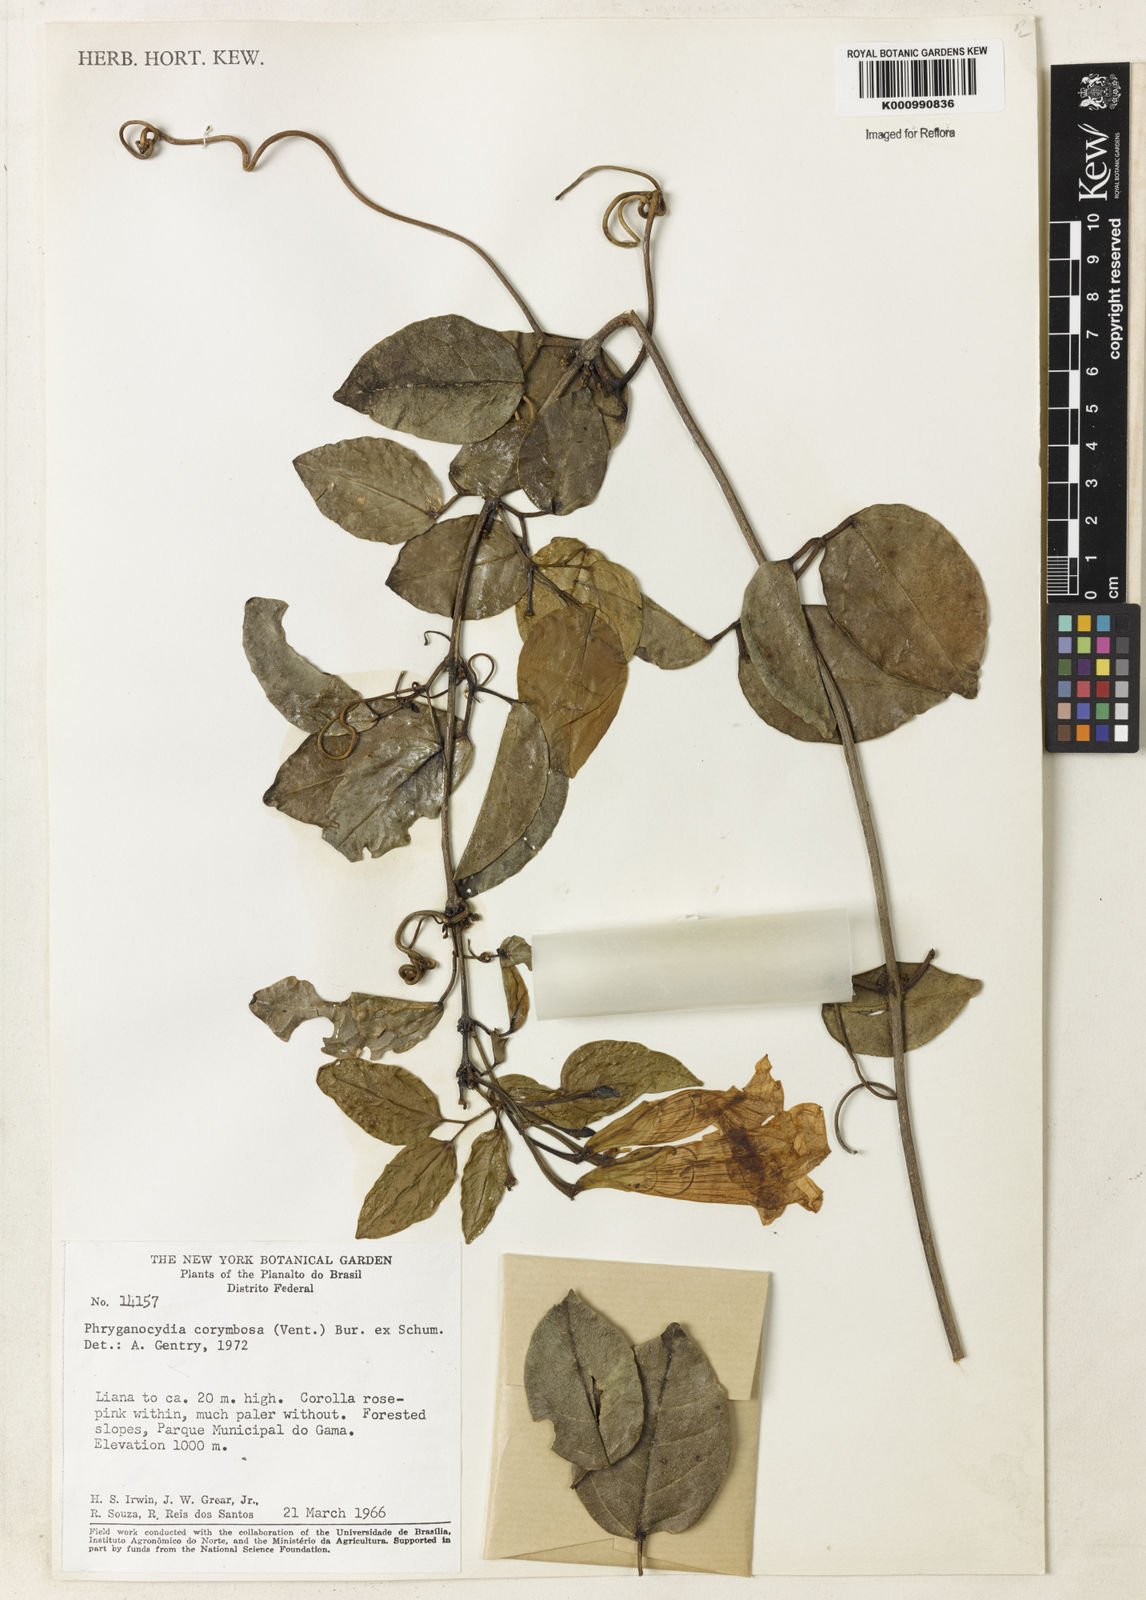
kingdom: Plantae
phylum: Tracheophyta
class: Magnoliopsida
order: Lamiales
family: Bignoniaceae
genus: Bignonia
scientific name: Bignonia corymbosa
